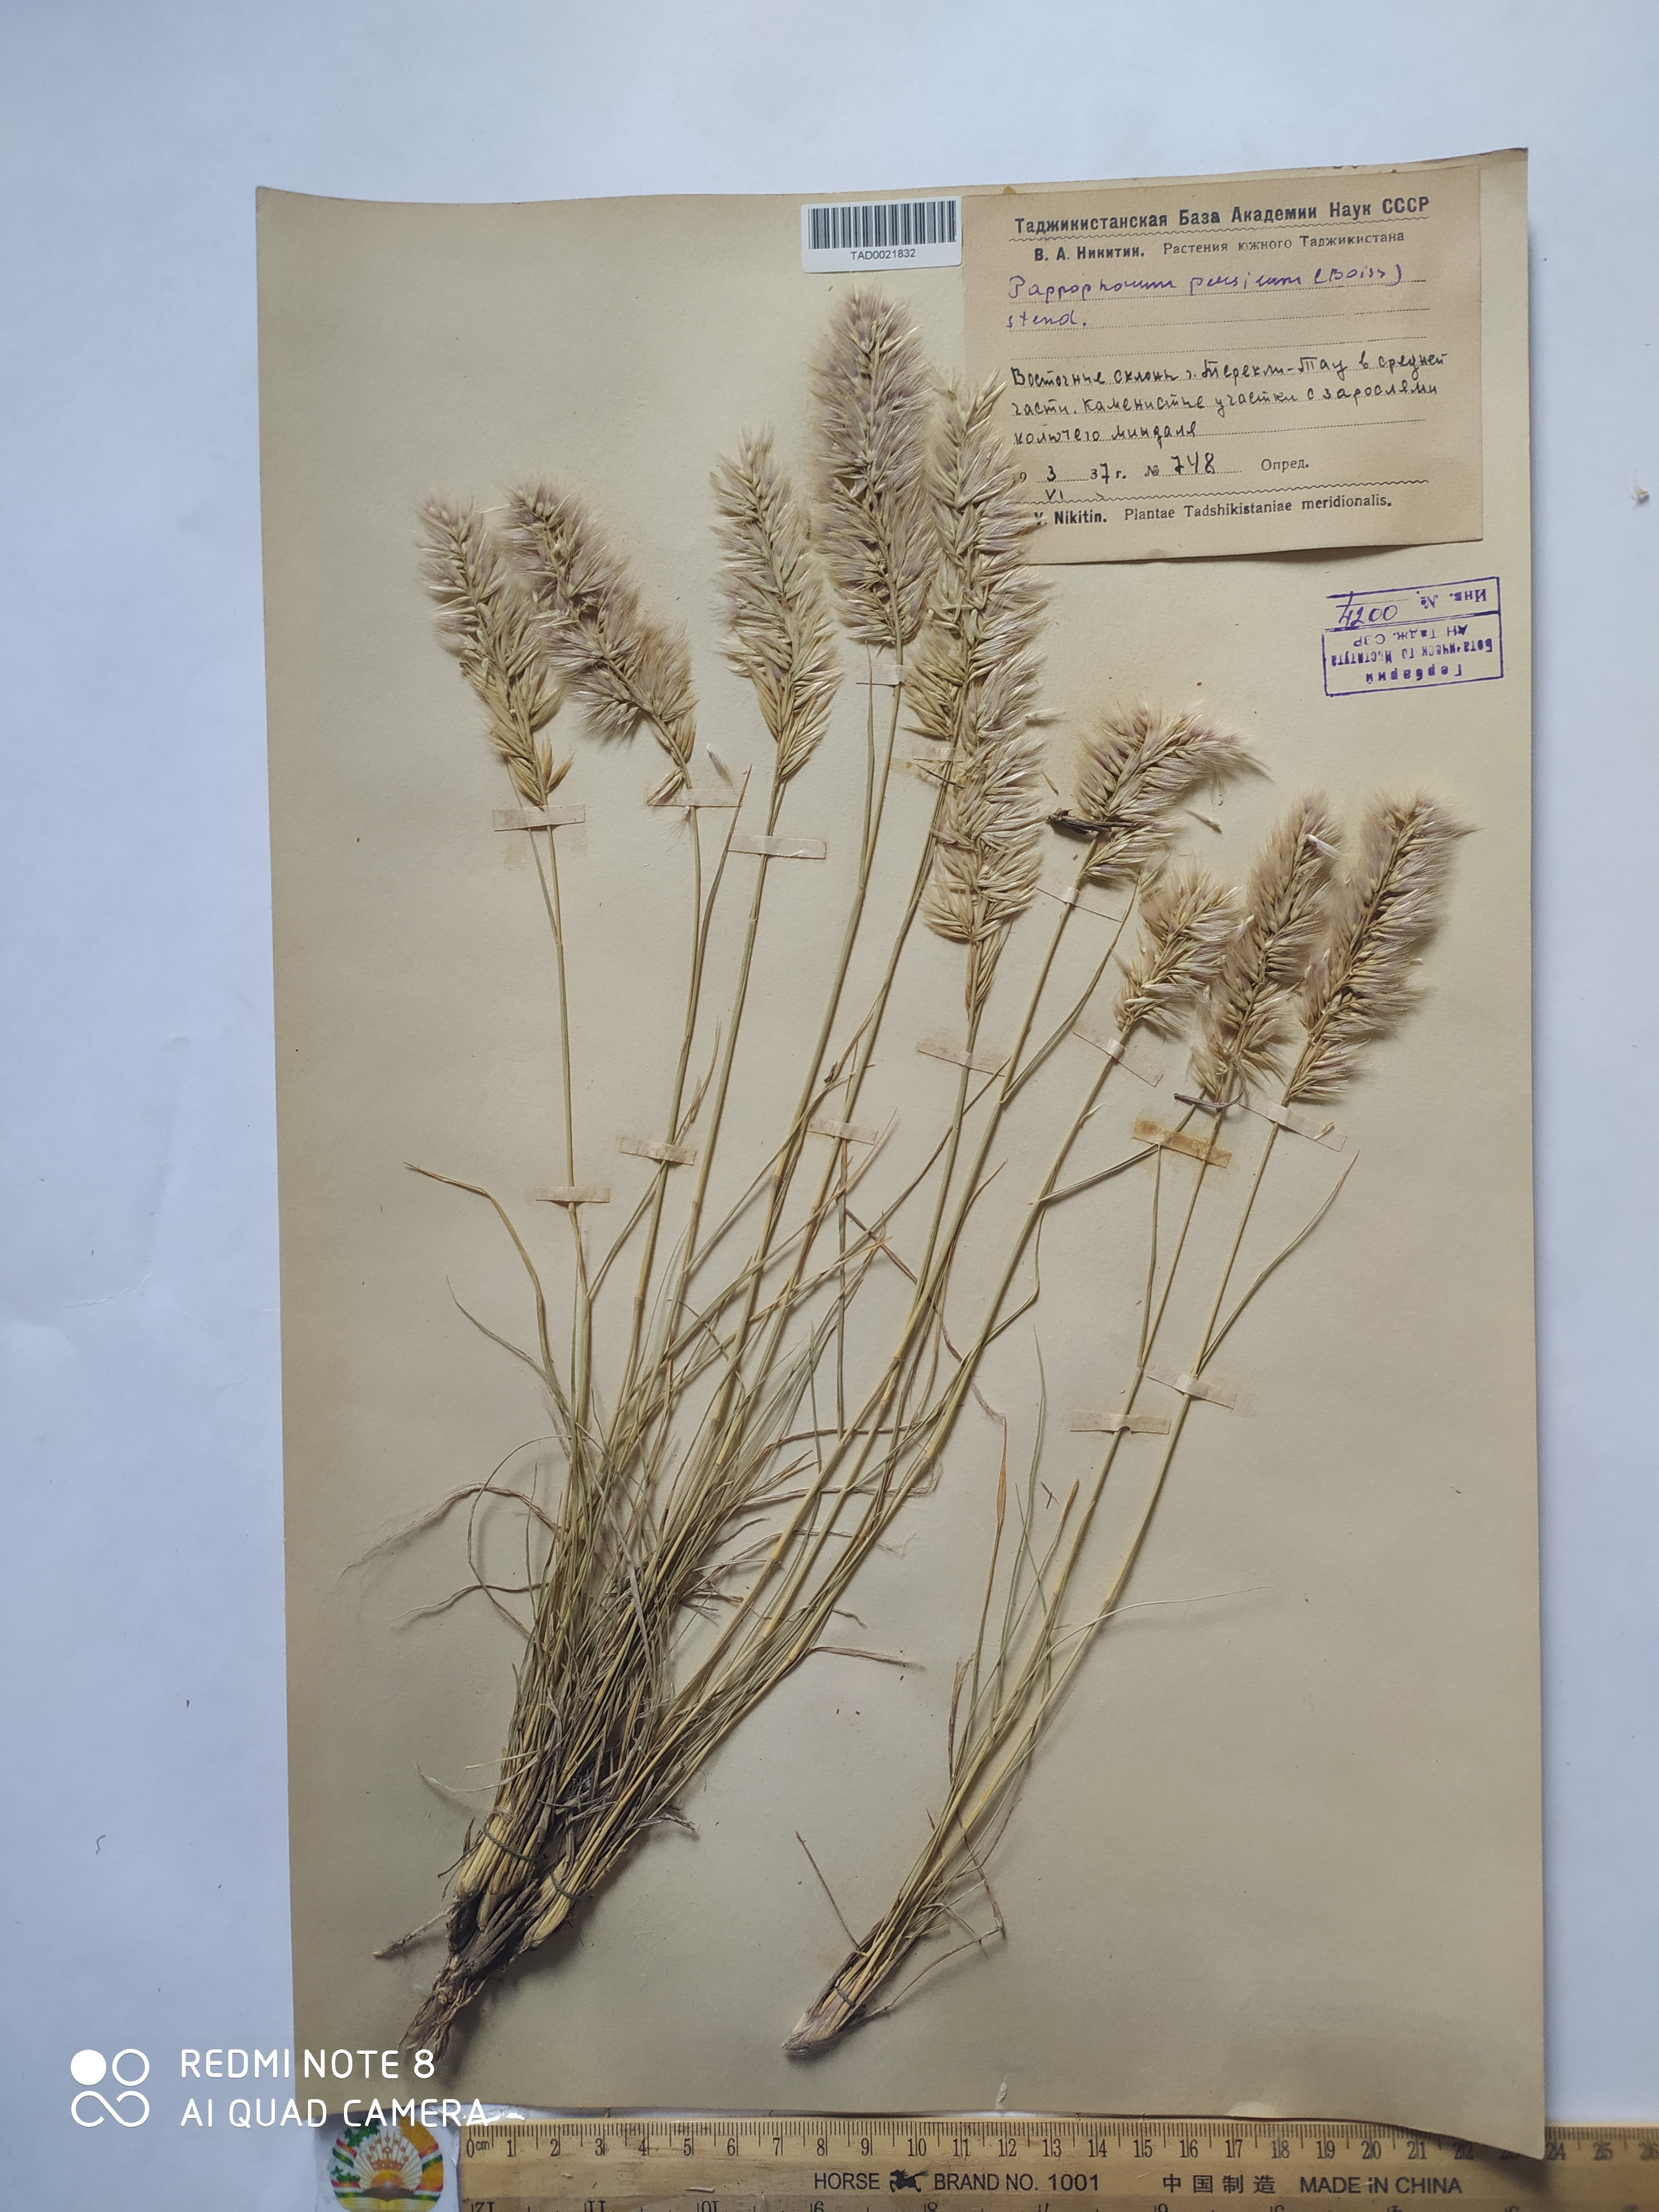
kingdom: Plantae
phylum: Tracheophyta
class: Liliopsida
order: Poales
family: Poaceae
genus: Enneapogon
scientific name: Enneapogon persicus
